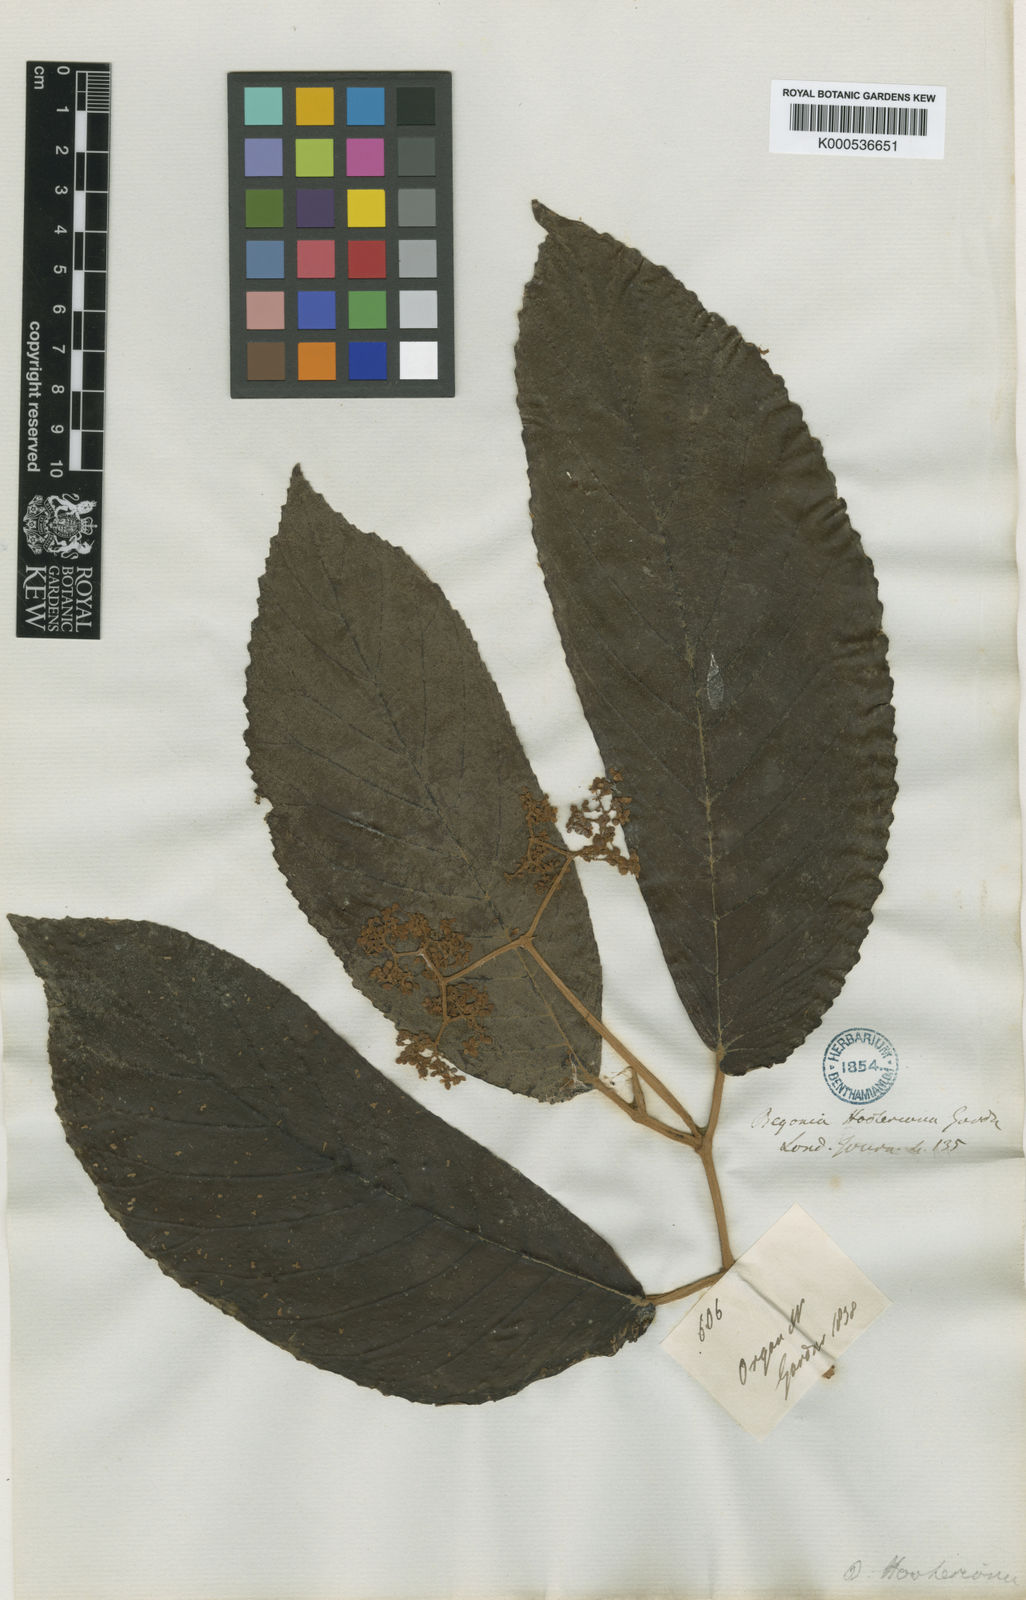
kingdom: Plantae
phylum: Tracheophyta
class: Magnoliopsida
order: Cucurbitales
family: Begoniaceae
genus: Begonia
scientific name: Begonia hookeriana
